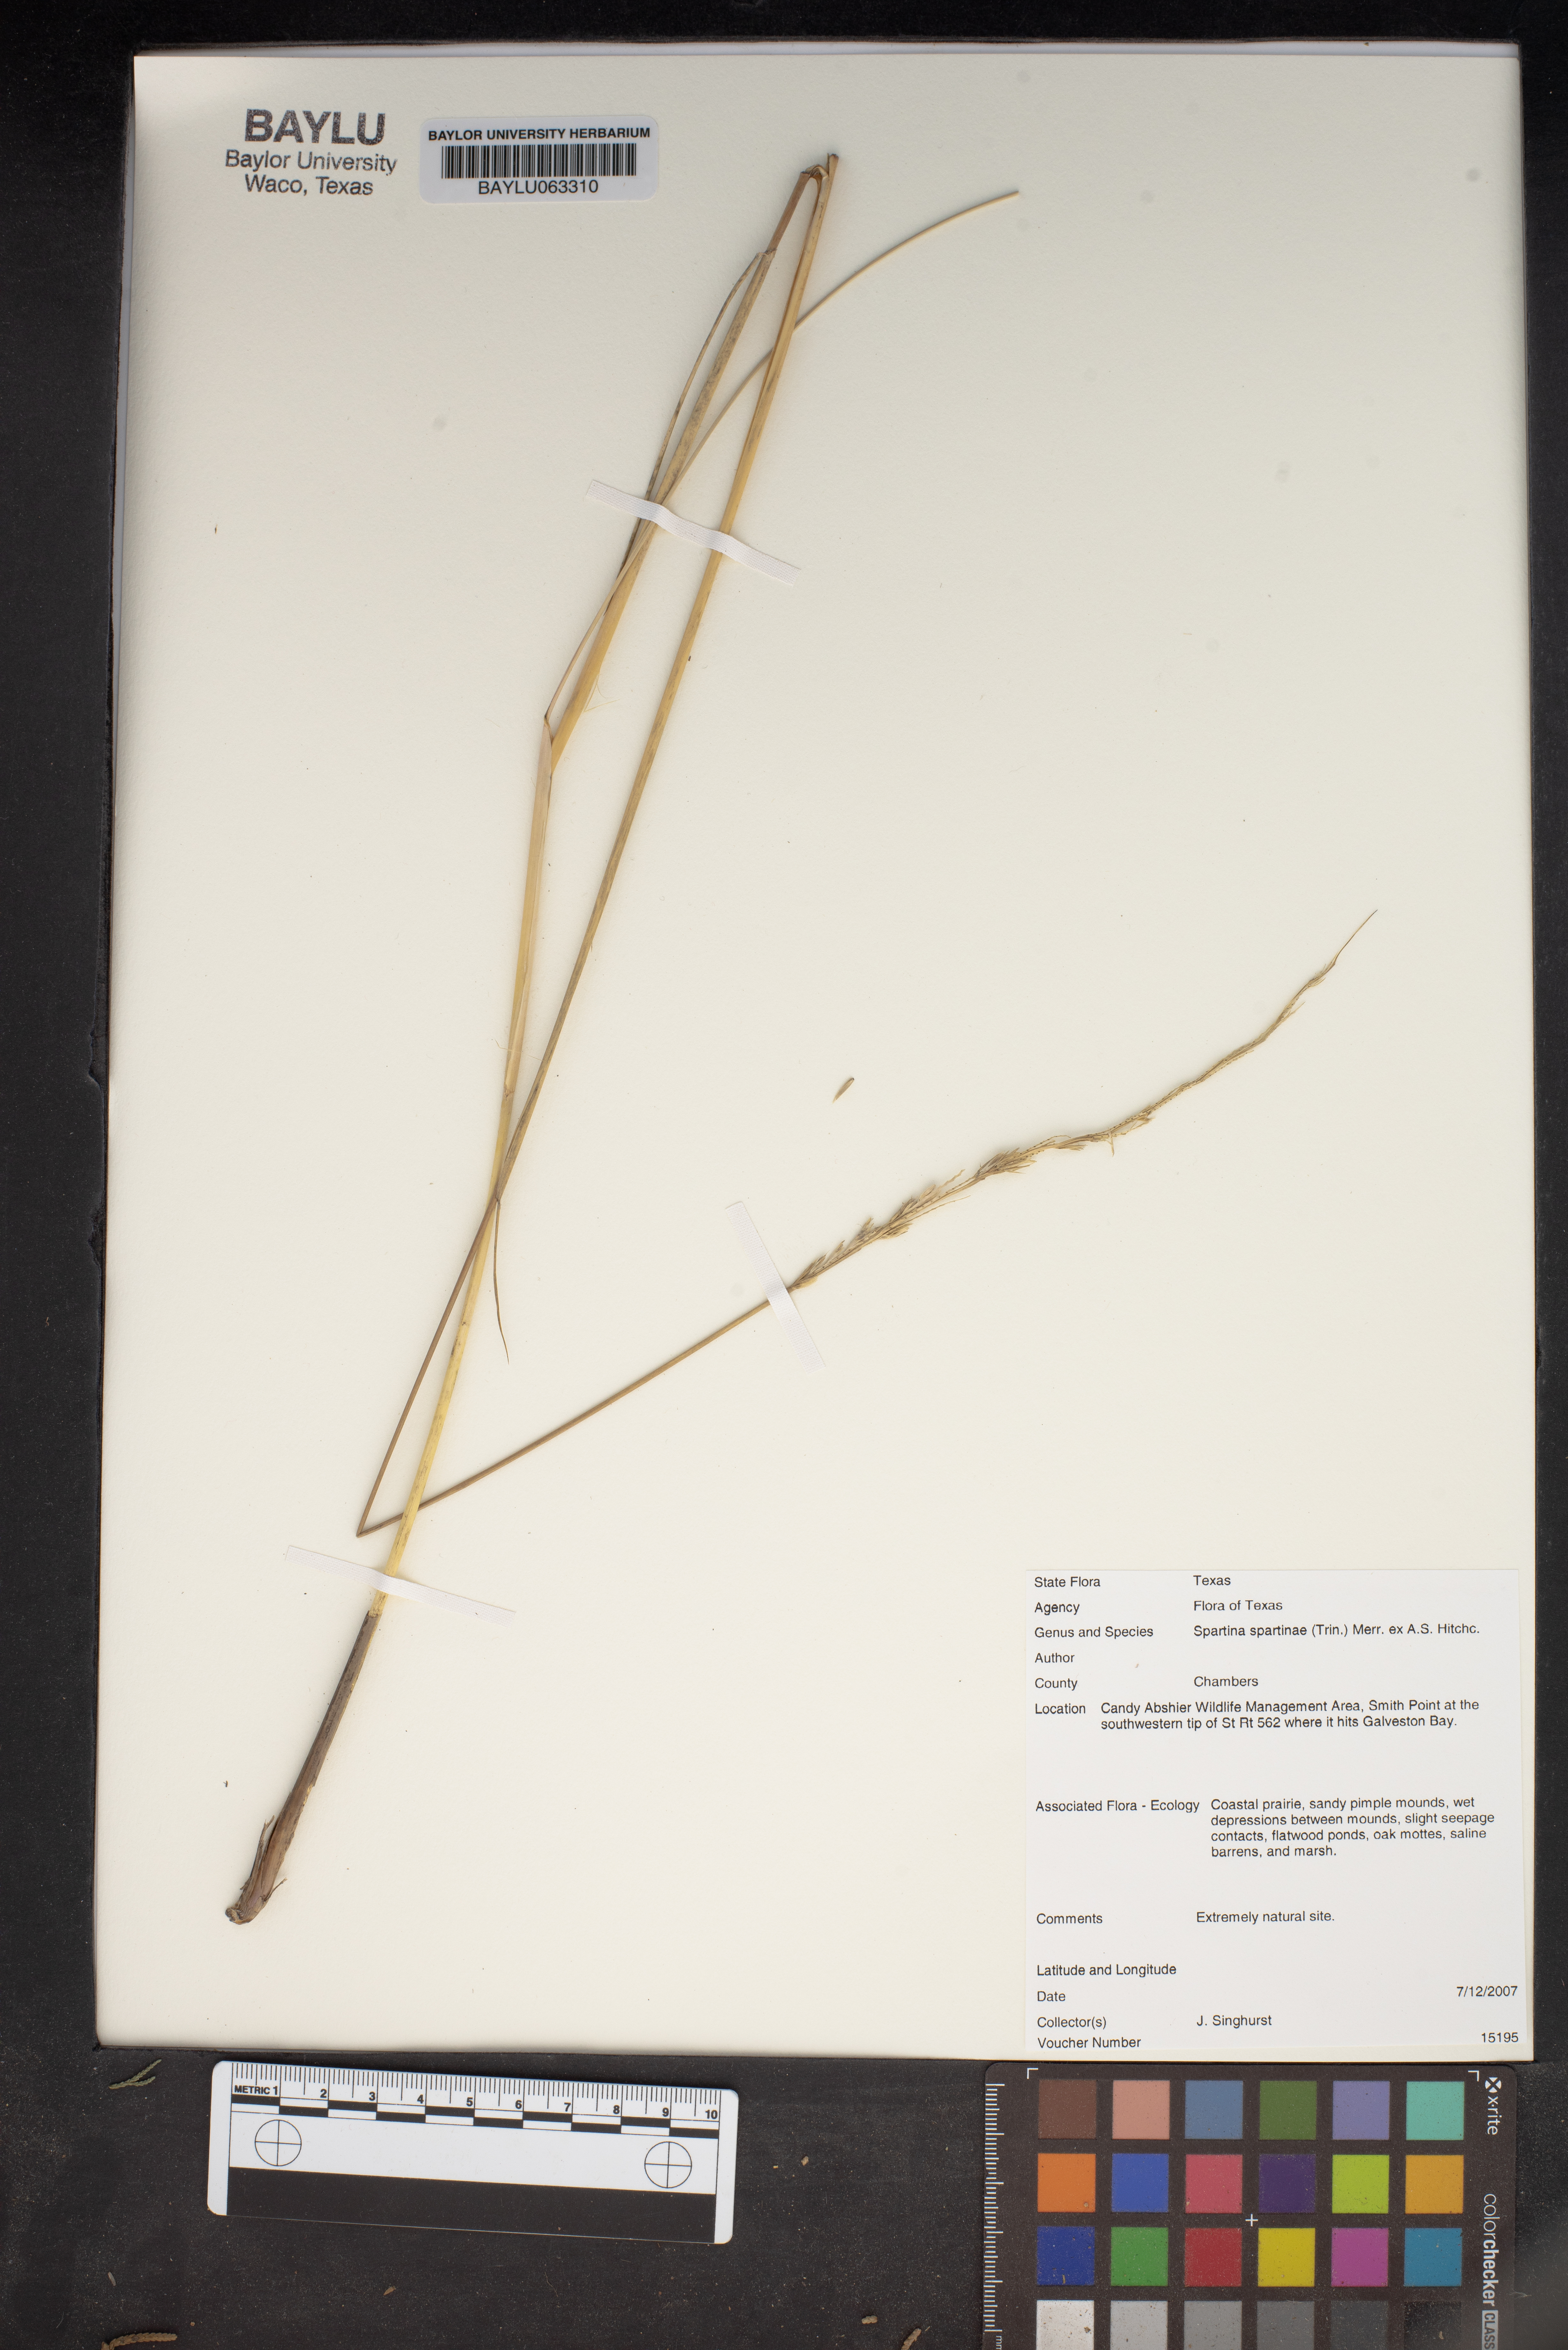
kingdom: Plantae
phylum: Tracheophyta
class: Liliopsida
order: Poales
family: Poaceae
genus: Sporobolus
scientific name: Sporobolus spartinae
